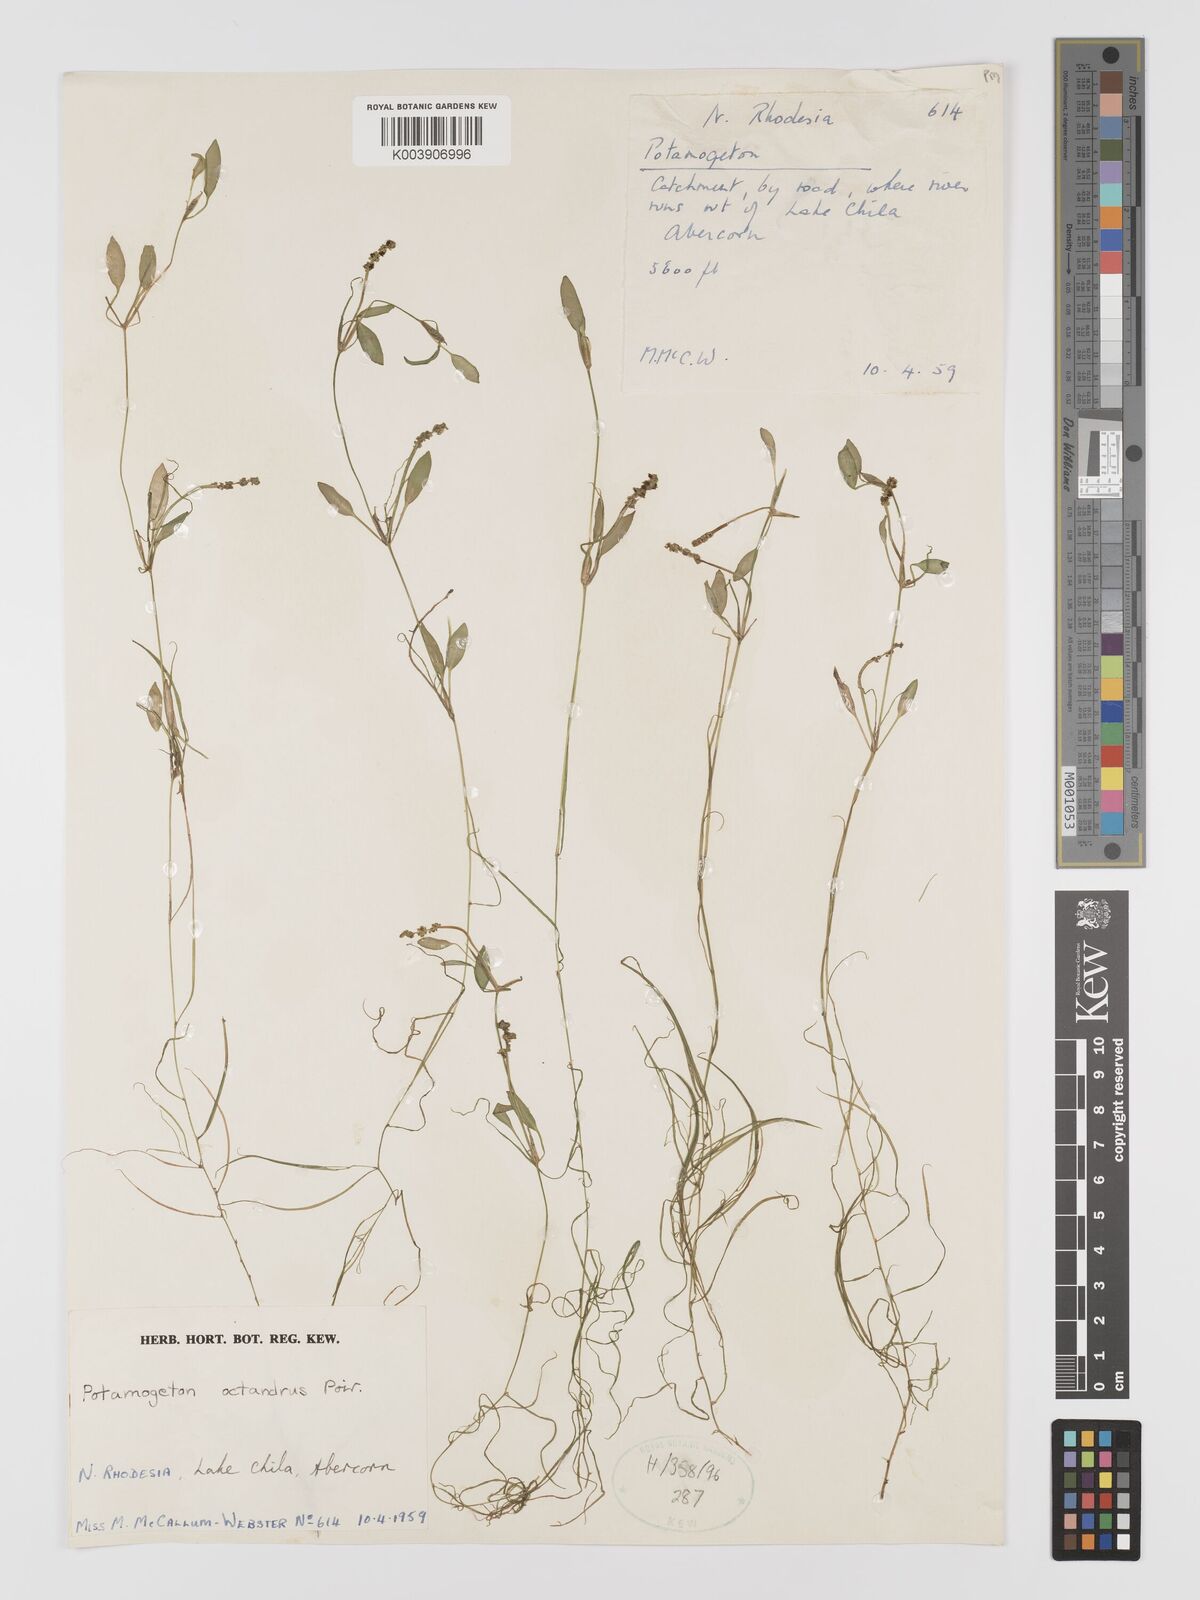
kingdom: Plantae
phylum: Tracheophyta
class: Liliopsida
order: Alismatales
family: Potamogetonaceae
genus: Potamogeton
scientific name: Potamogeton octandrus
